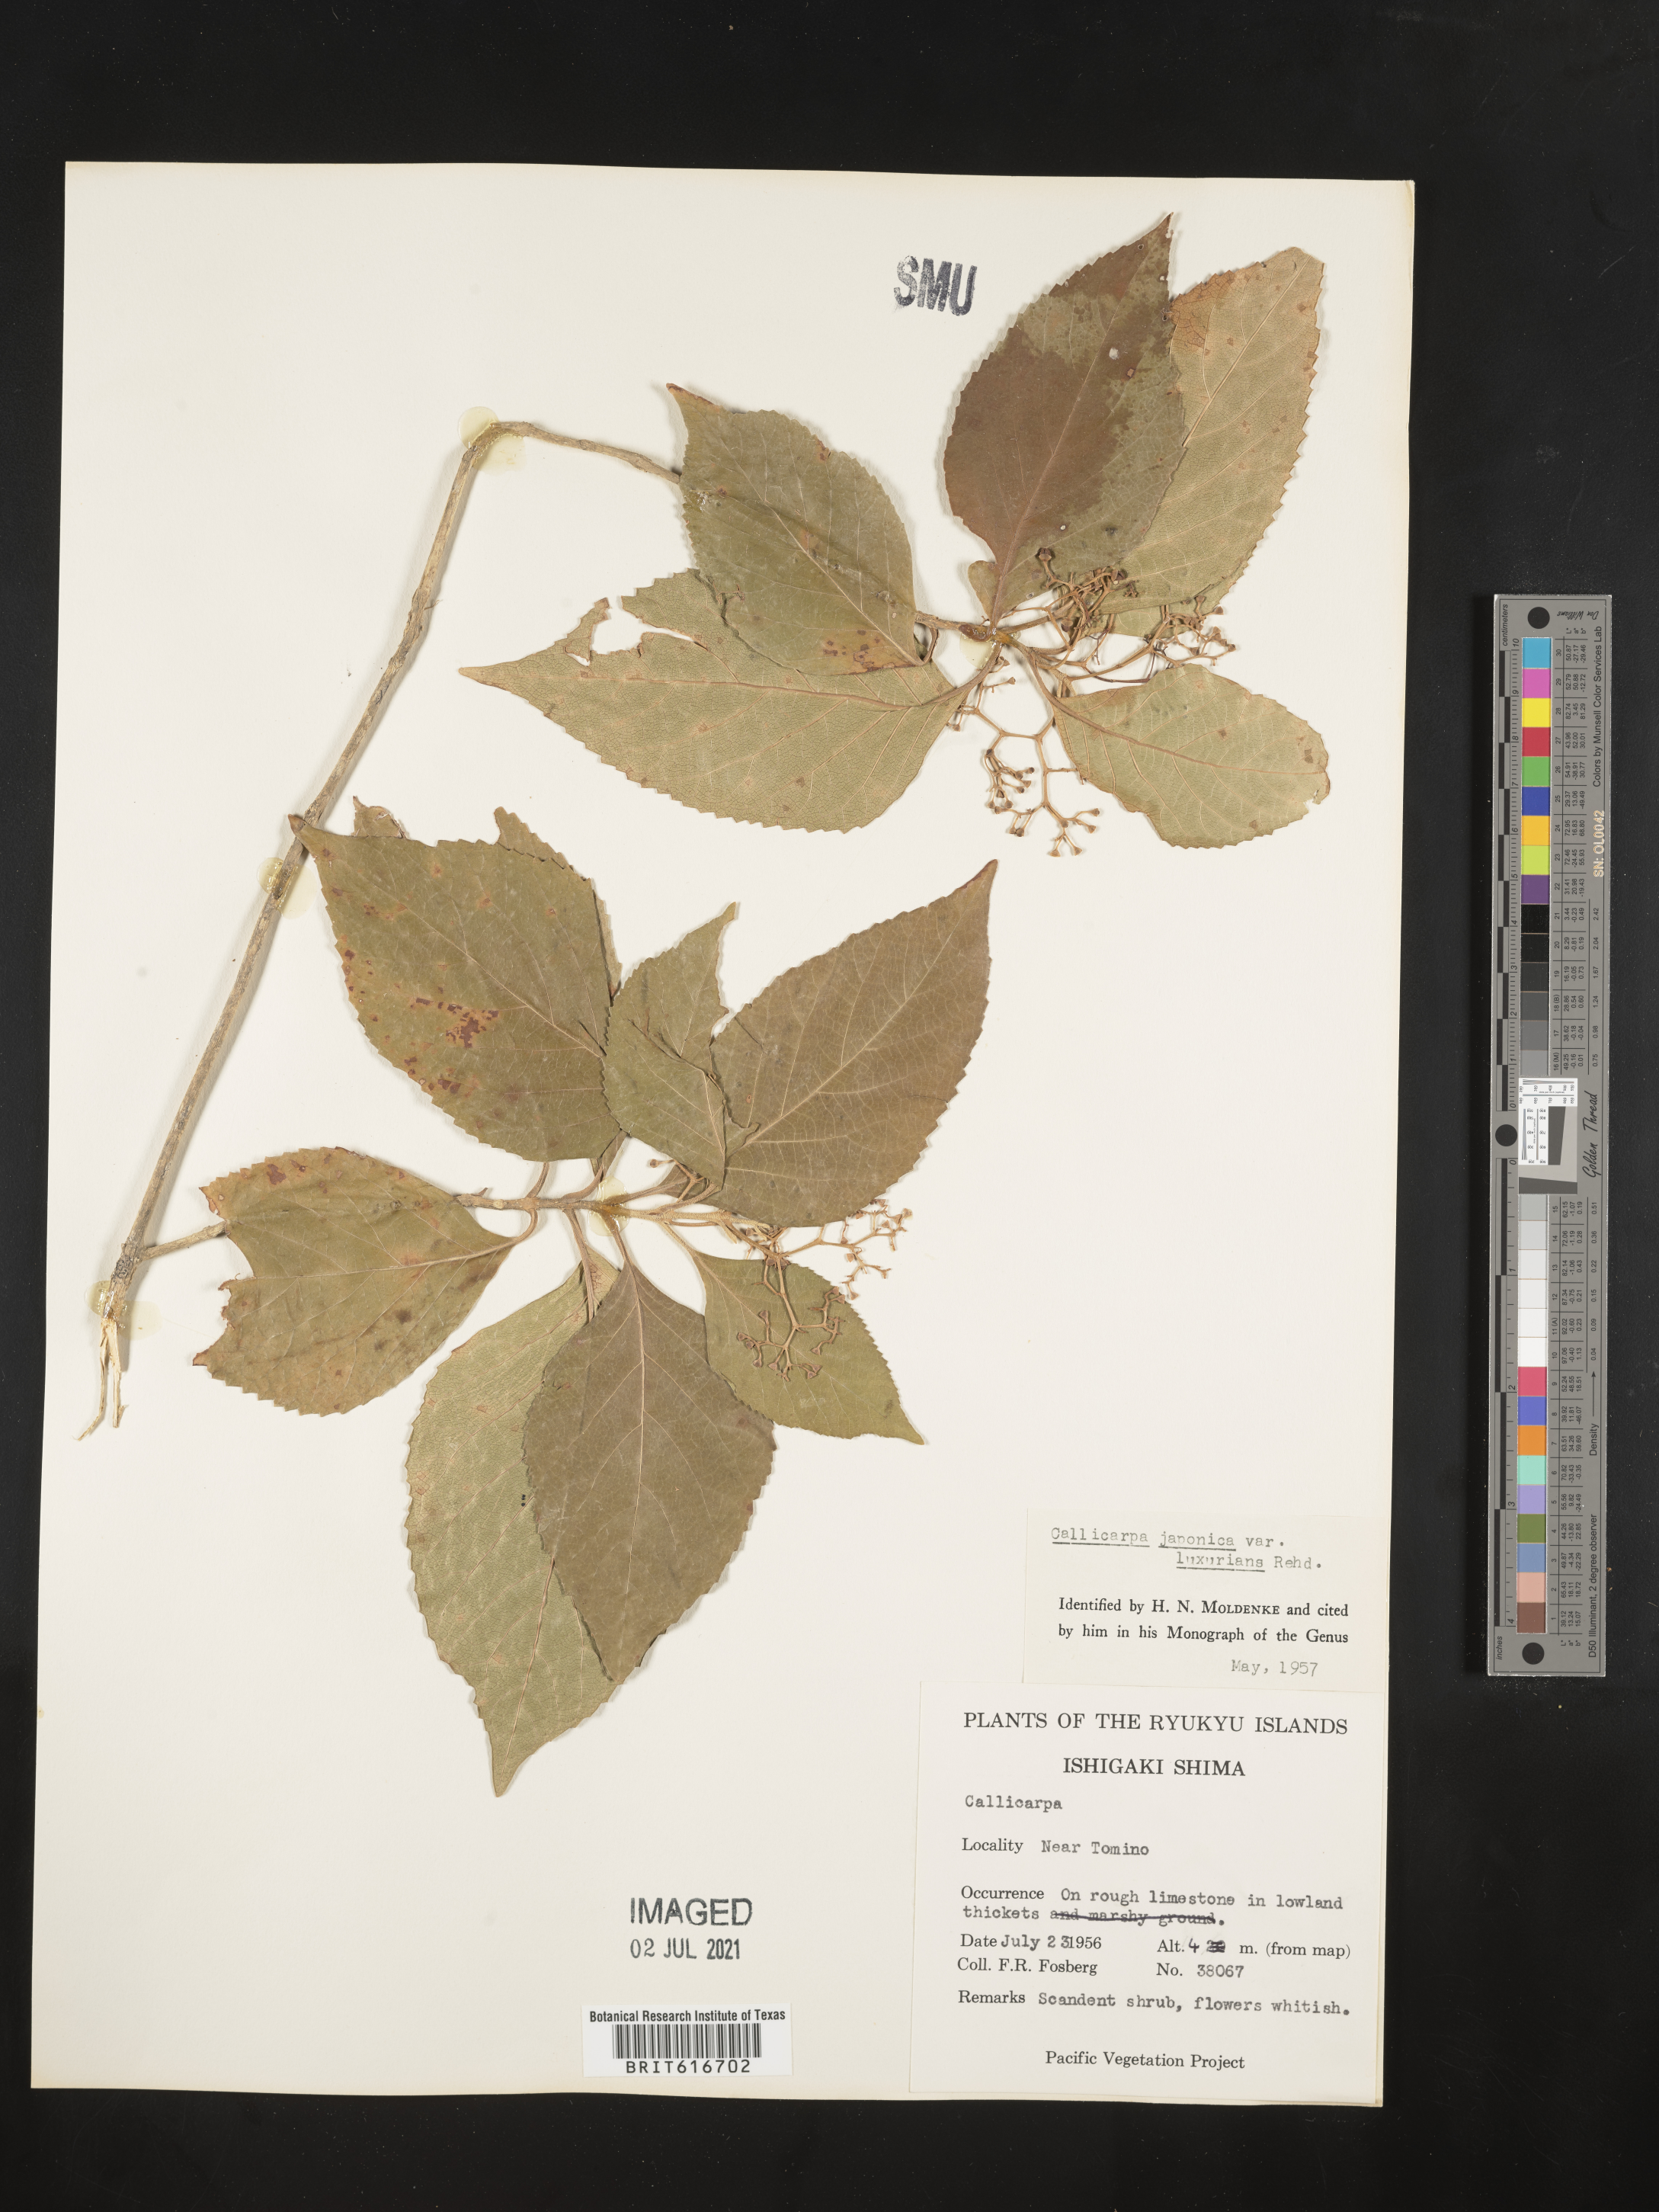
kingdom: Plantae
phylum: Tracheophyta
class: Magnoliopsida
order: Lamiales
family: Lamiaceae
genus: Callicarpa
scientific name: Callicarpa japonica
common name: Japanese beauty-berry
